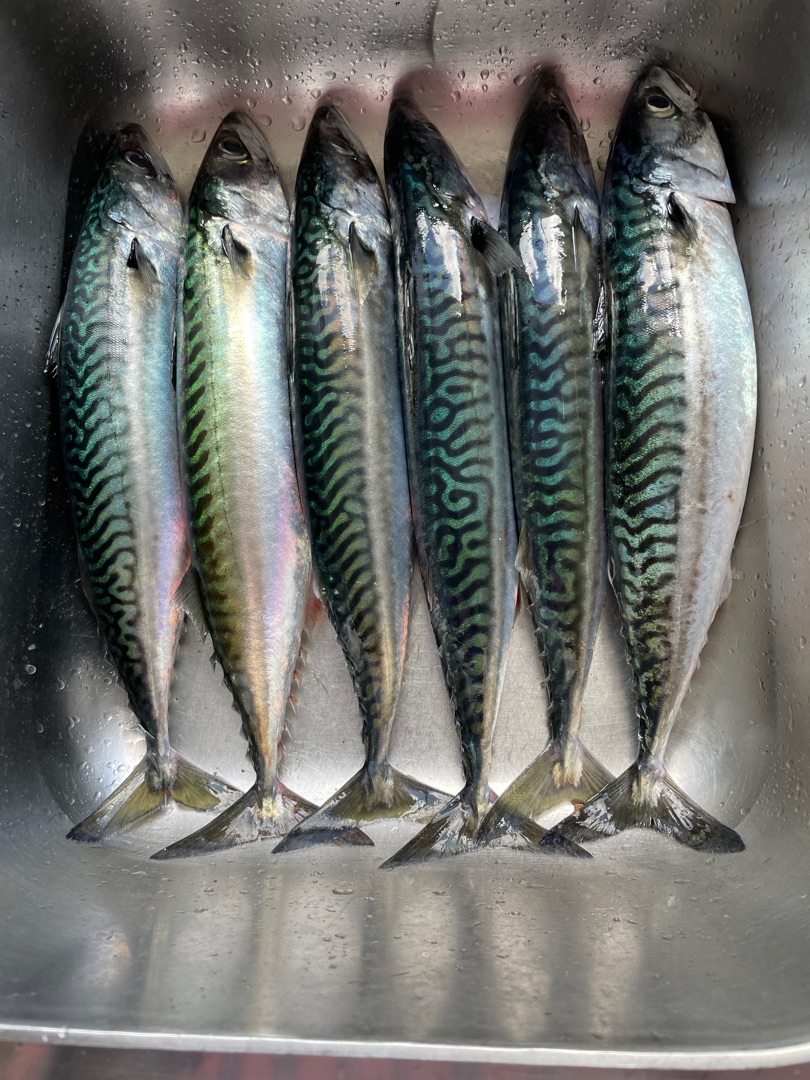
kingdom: Animalia
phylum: Chordata
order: Perciformes
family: Scombridae
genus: Scomber
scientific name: Scomber scombrus
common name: Makrel
